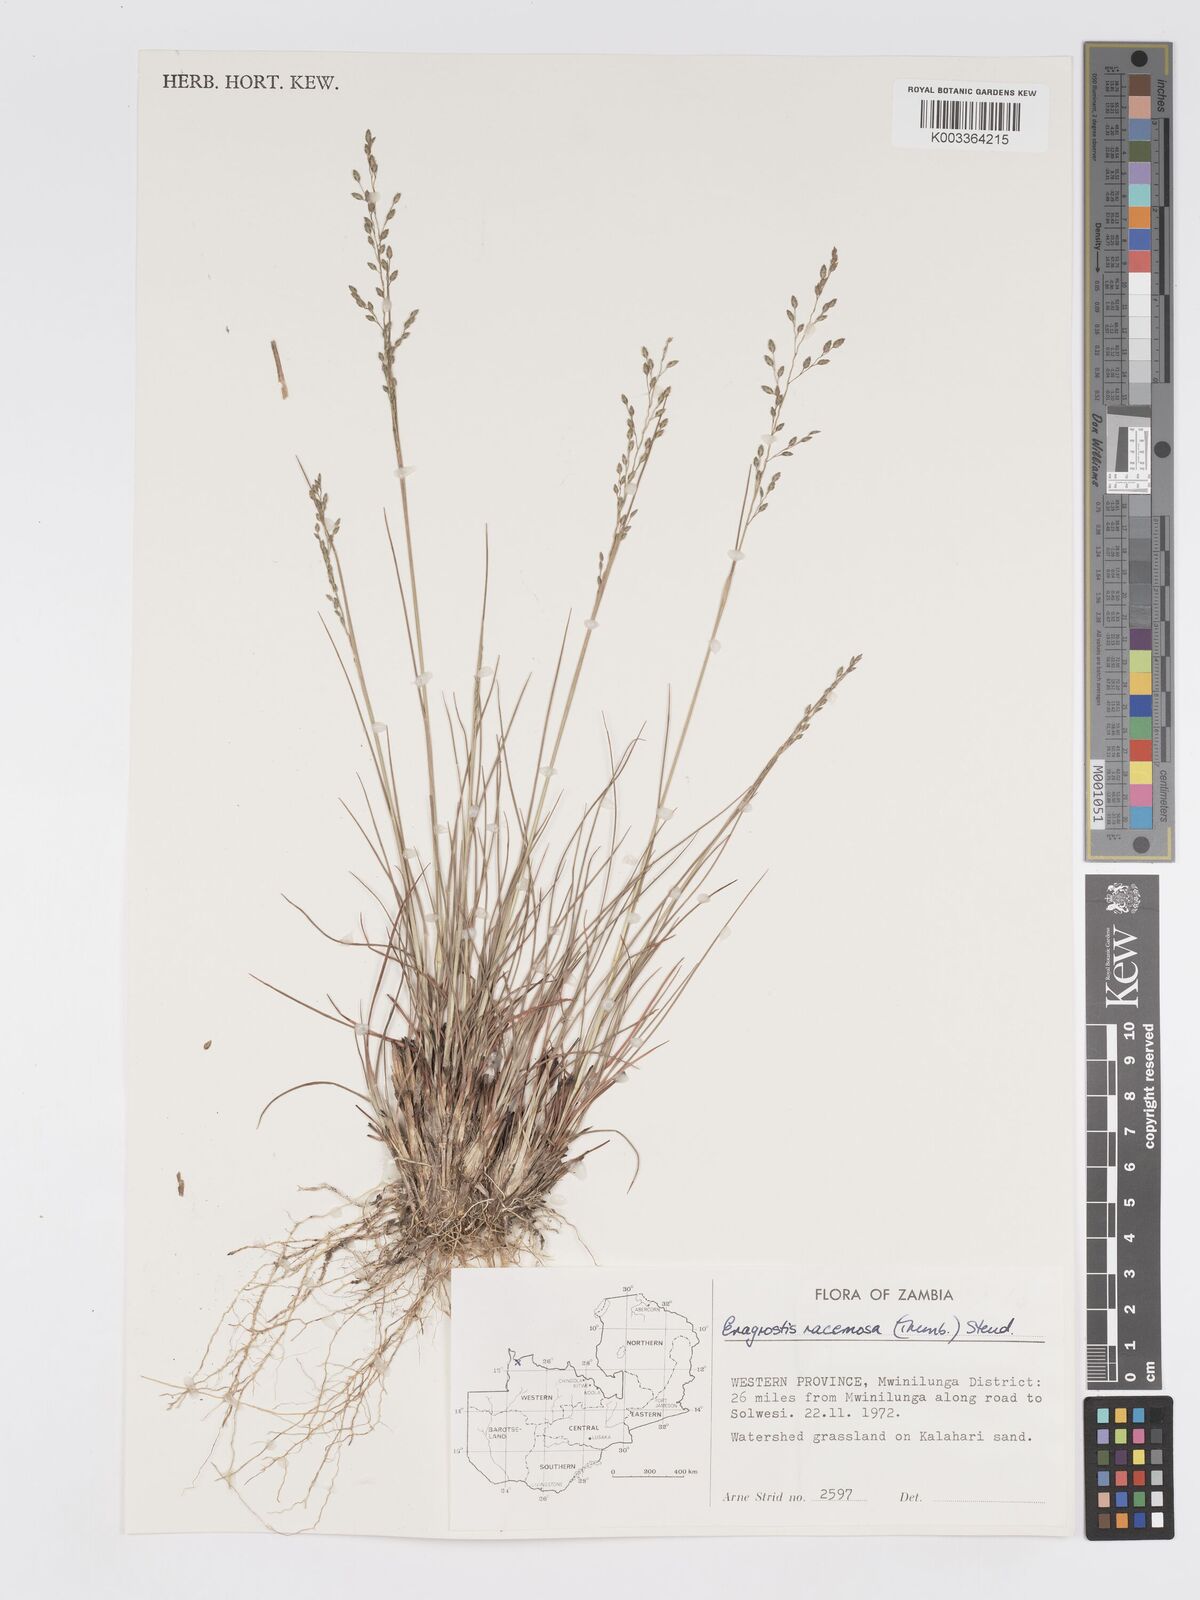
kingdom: Plantae
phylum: Tracheophyta
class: Liliopsida
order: Poales
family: Poaceae
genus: Eragrostis
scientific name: Eragrostis racemosa
